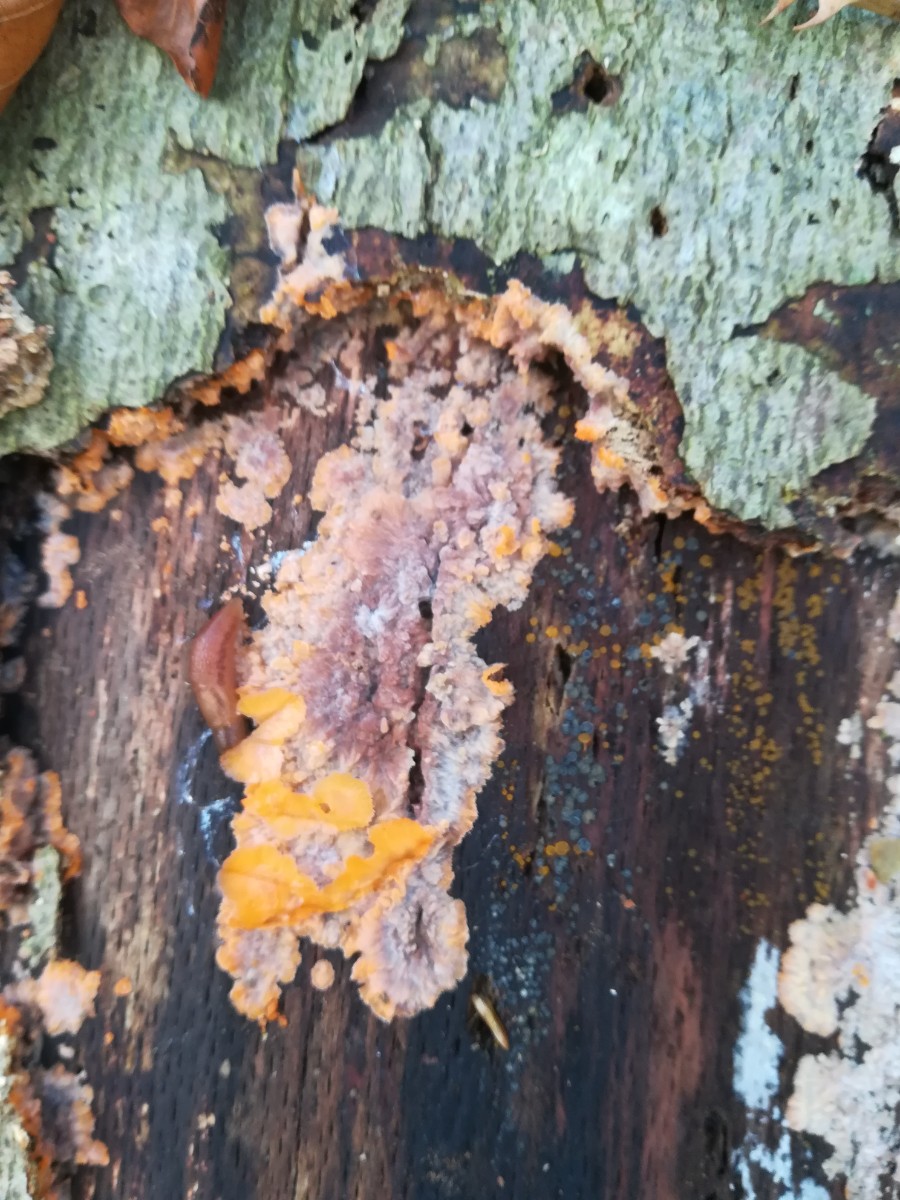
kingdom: Fungi
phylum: Basidiomycota
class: Agaricomycetes
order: Polyporales
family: Meruliaceae
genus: Phlebia
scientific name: Phlebia radiata
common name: stråle-åresvamp
